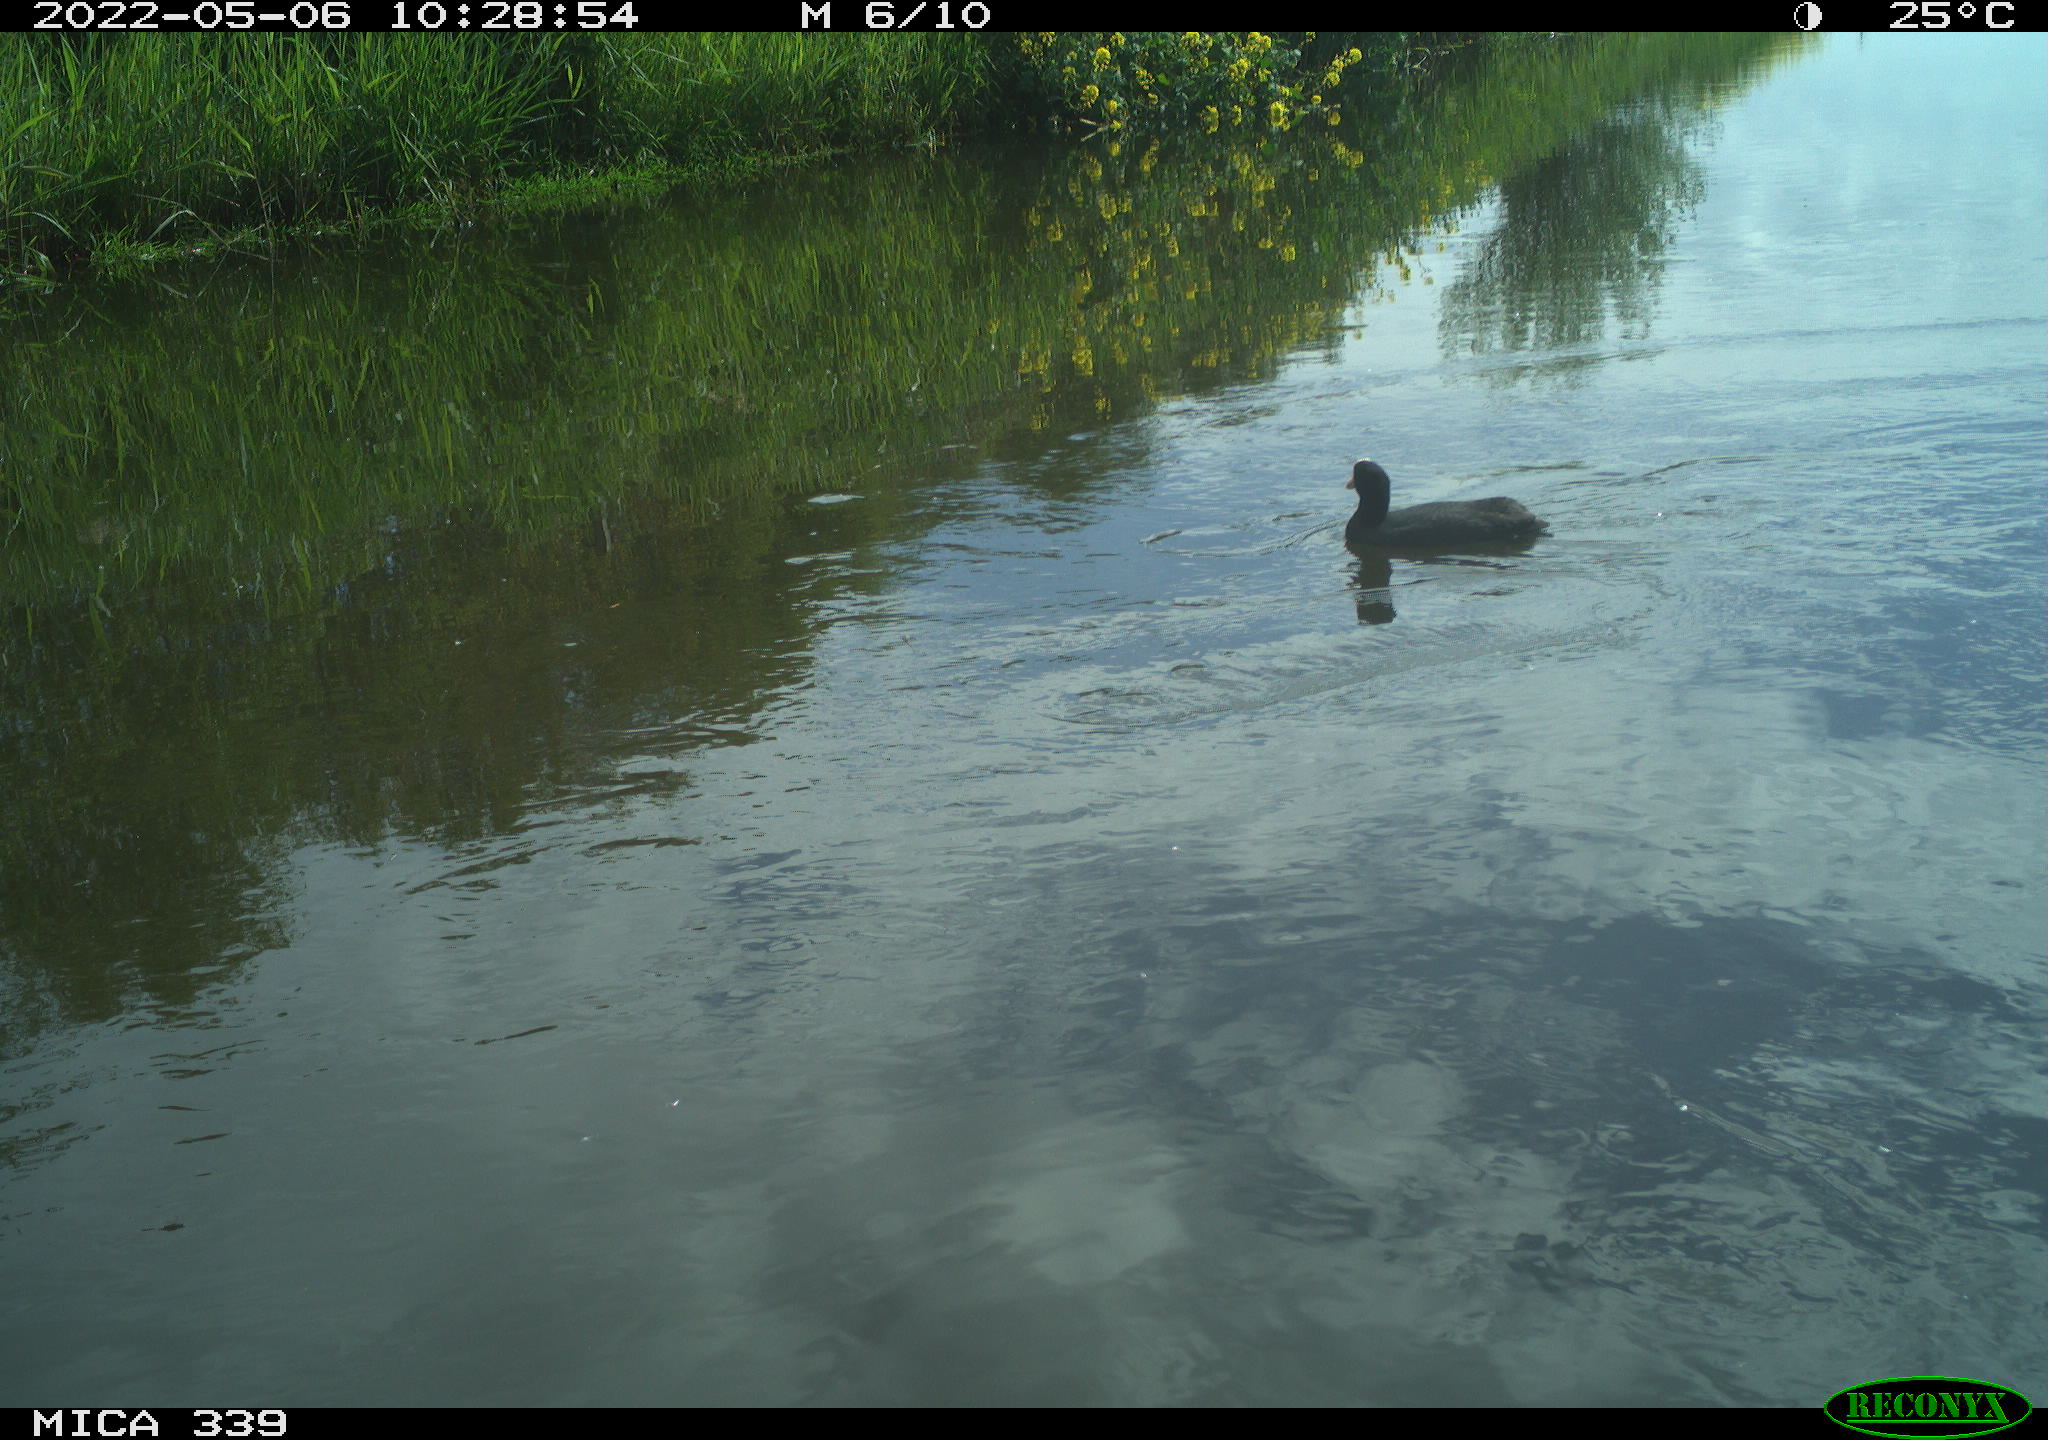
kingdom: Animalia
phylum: Chordata
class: Aves
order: Gruiformes
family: Rallidae
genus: Fulica
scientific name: Fulica atra
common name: Eurasian coot
